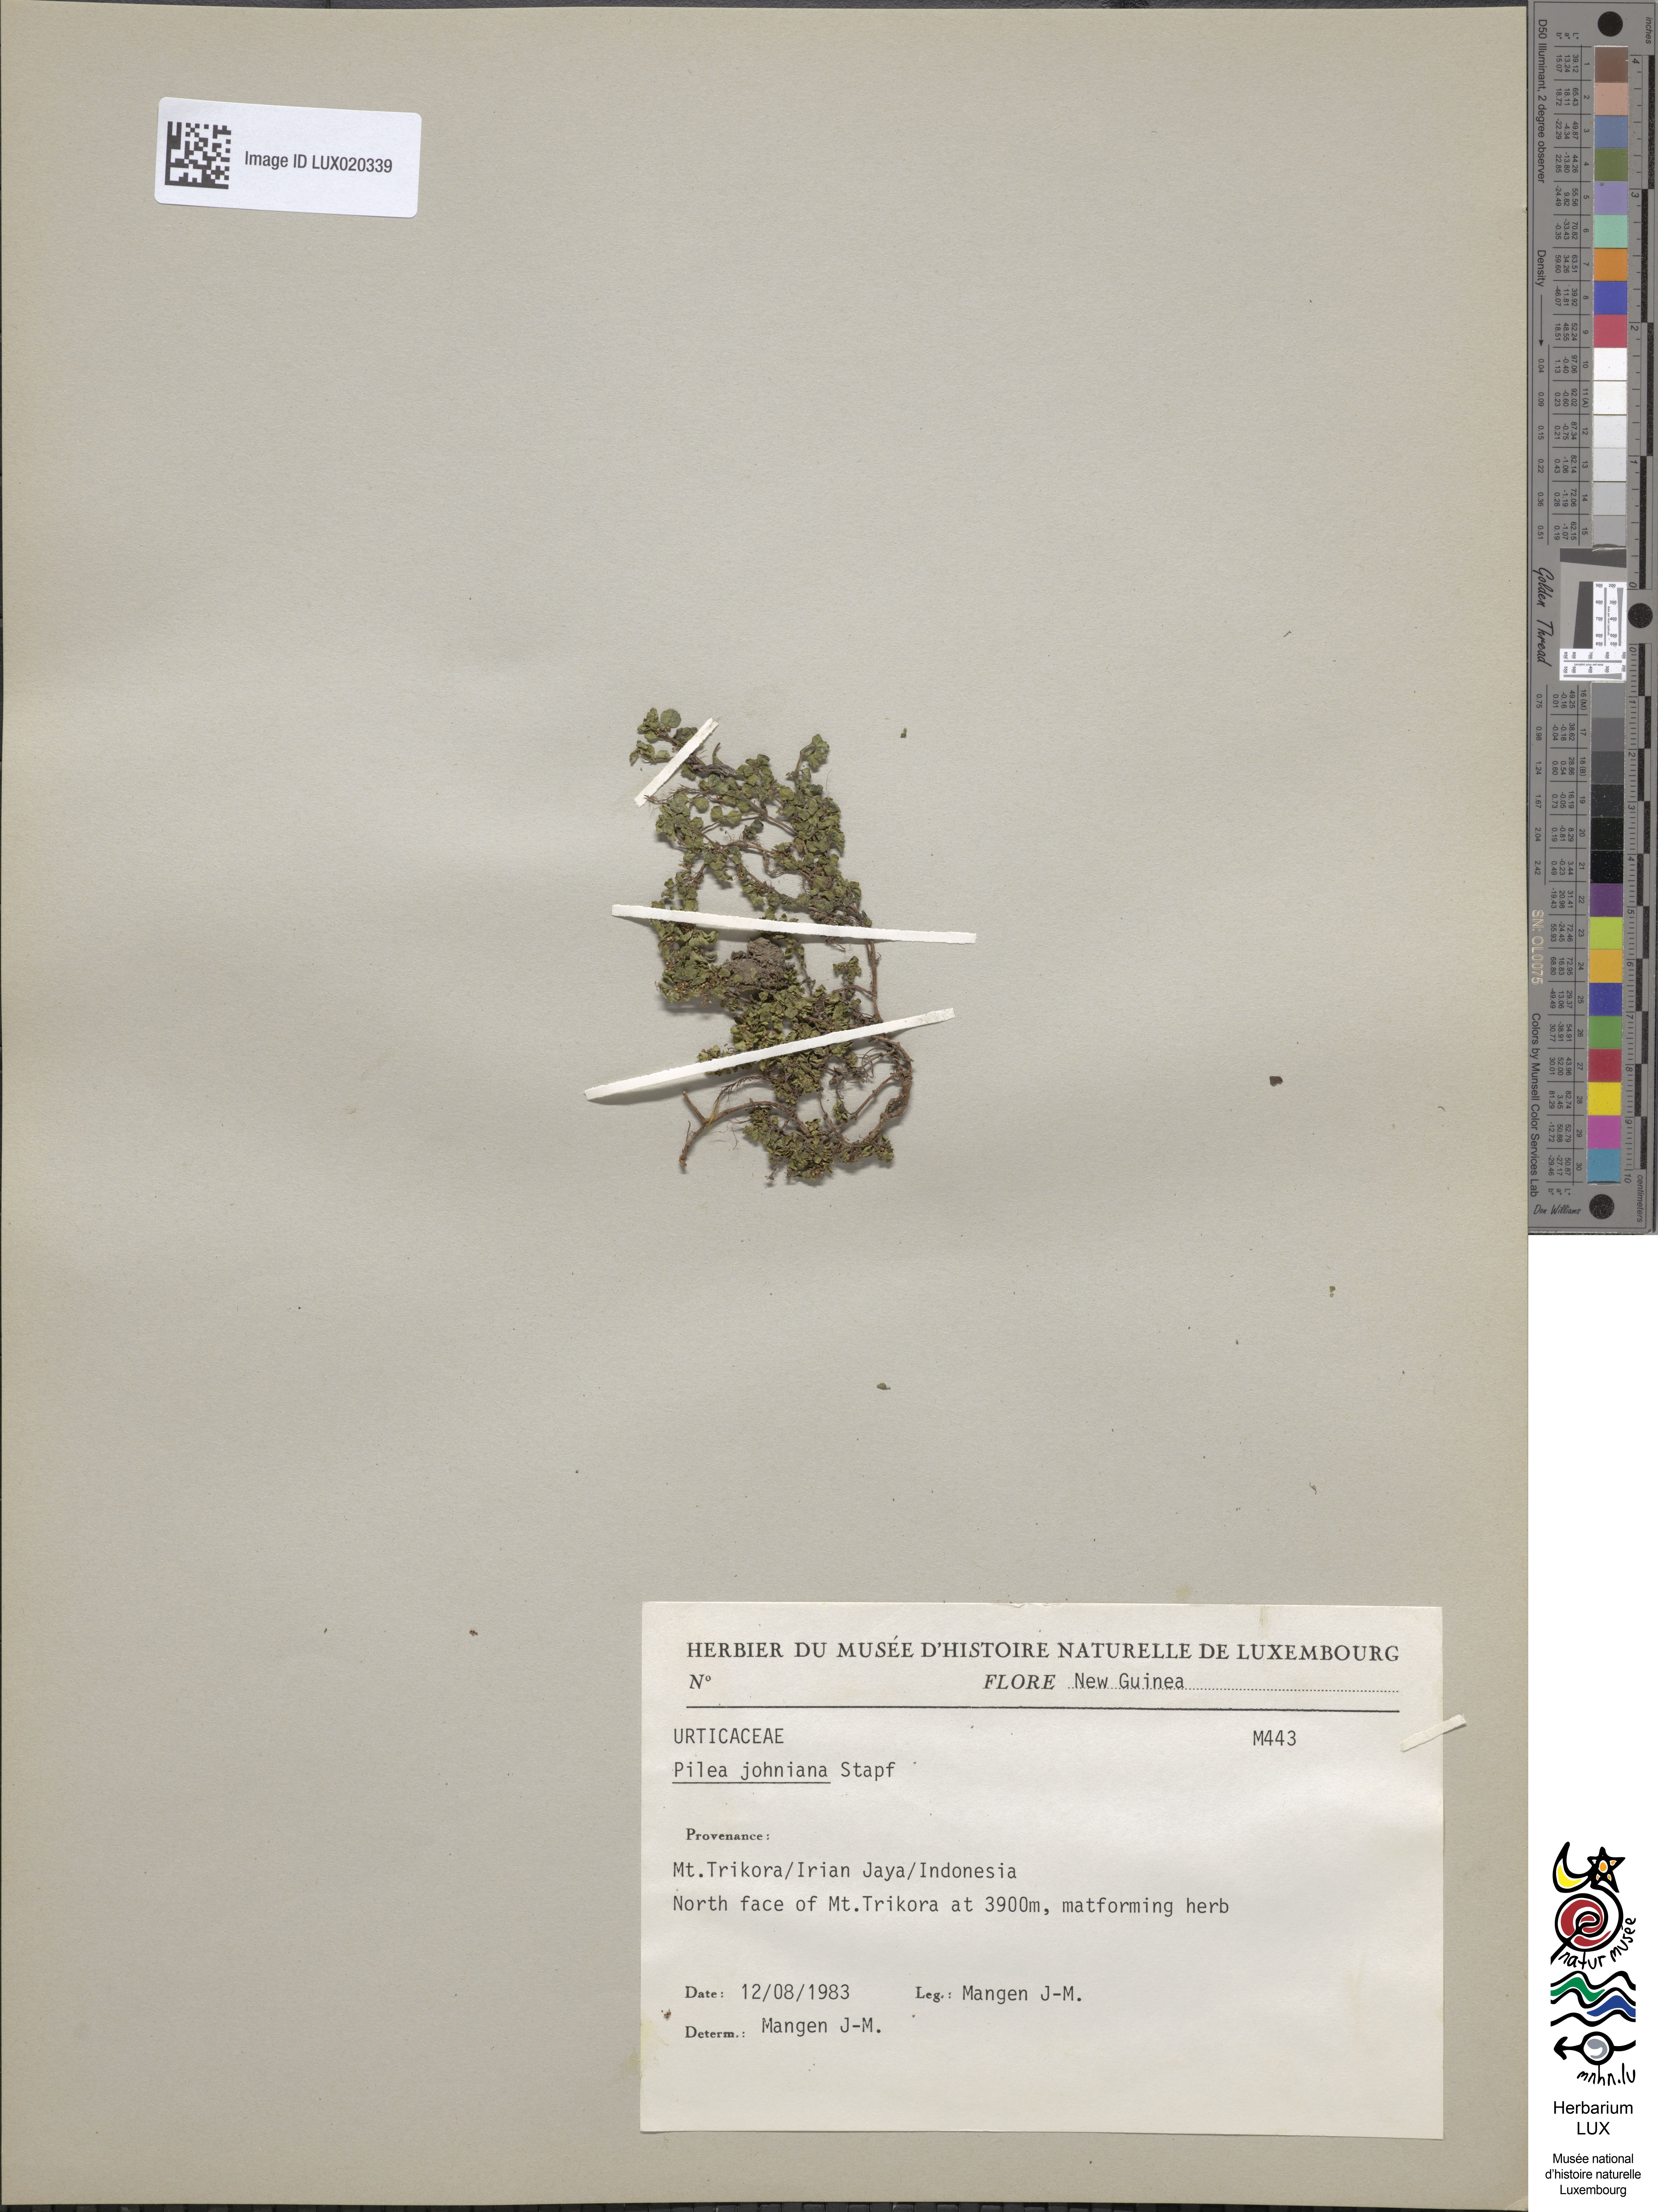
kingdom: Plantae
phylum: Tracheophyta
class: Magnoliopsida
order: Rosales
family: Urticaceae
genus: Pilea
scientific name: Pilea johniana
